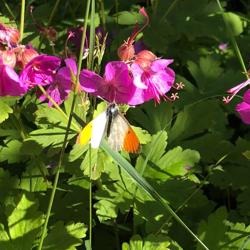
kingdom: Animalia
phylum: Arthropoda
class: Insecta
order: Lepidoptera
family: Pieridae
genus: Anthocharis
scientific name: Anthocharis cardamines
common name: Aurora
